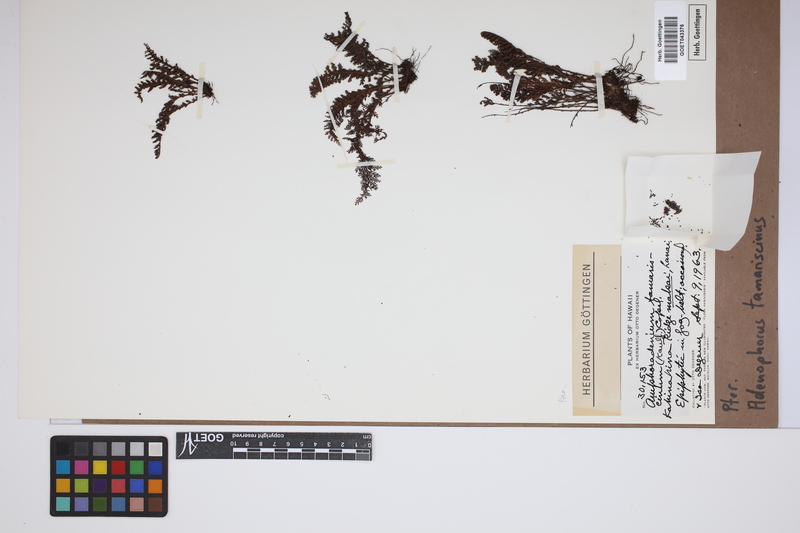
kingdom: Plantae
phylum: Tracheophyta
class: Polypodiopsida
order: Polypodiales
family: Polypodiaceae
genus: Adenophorus
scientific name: Adenophorus tamariscinus
